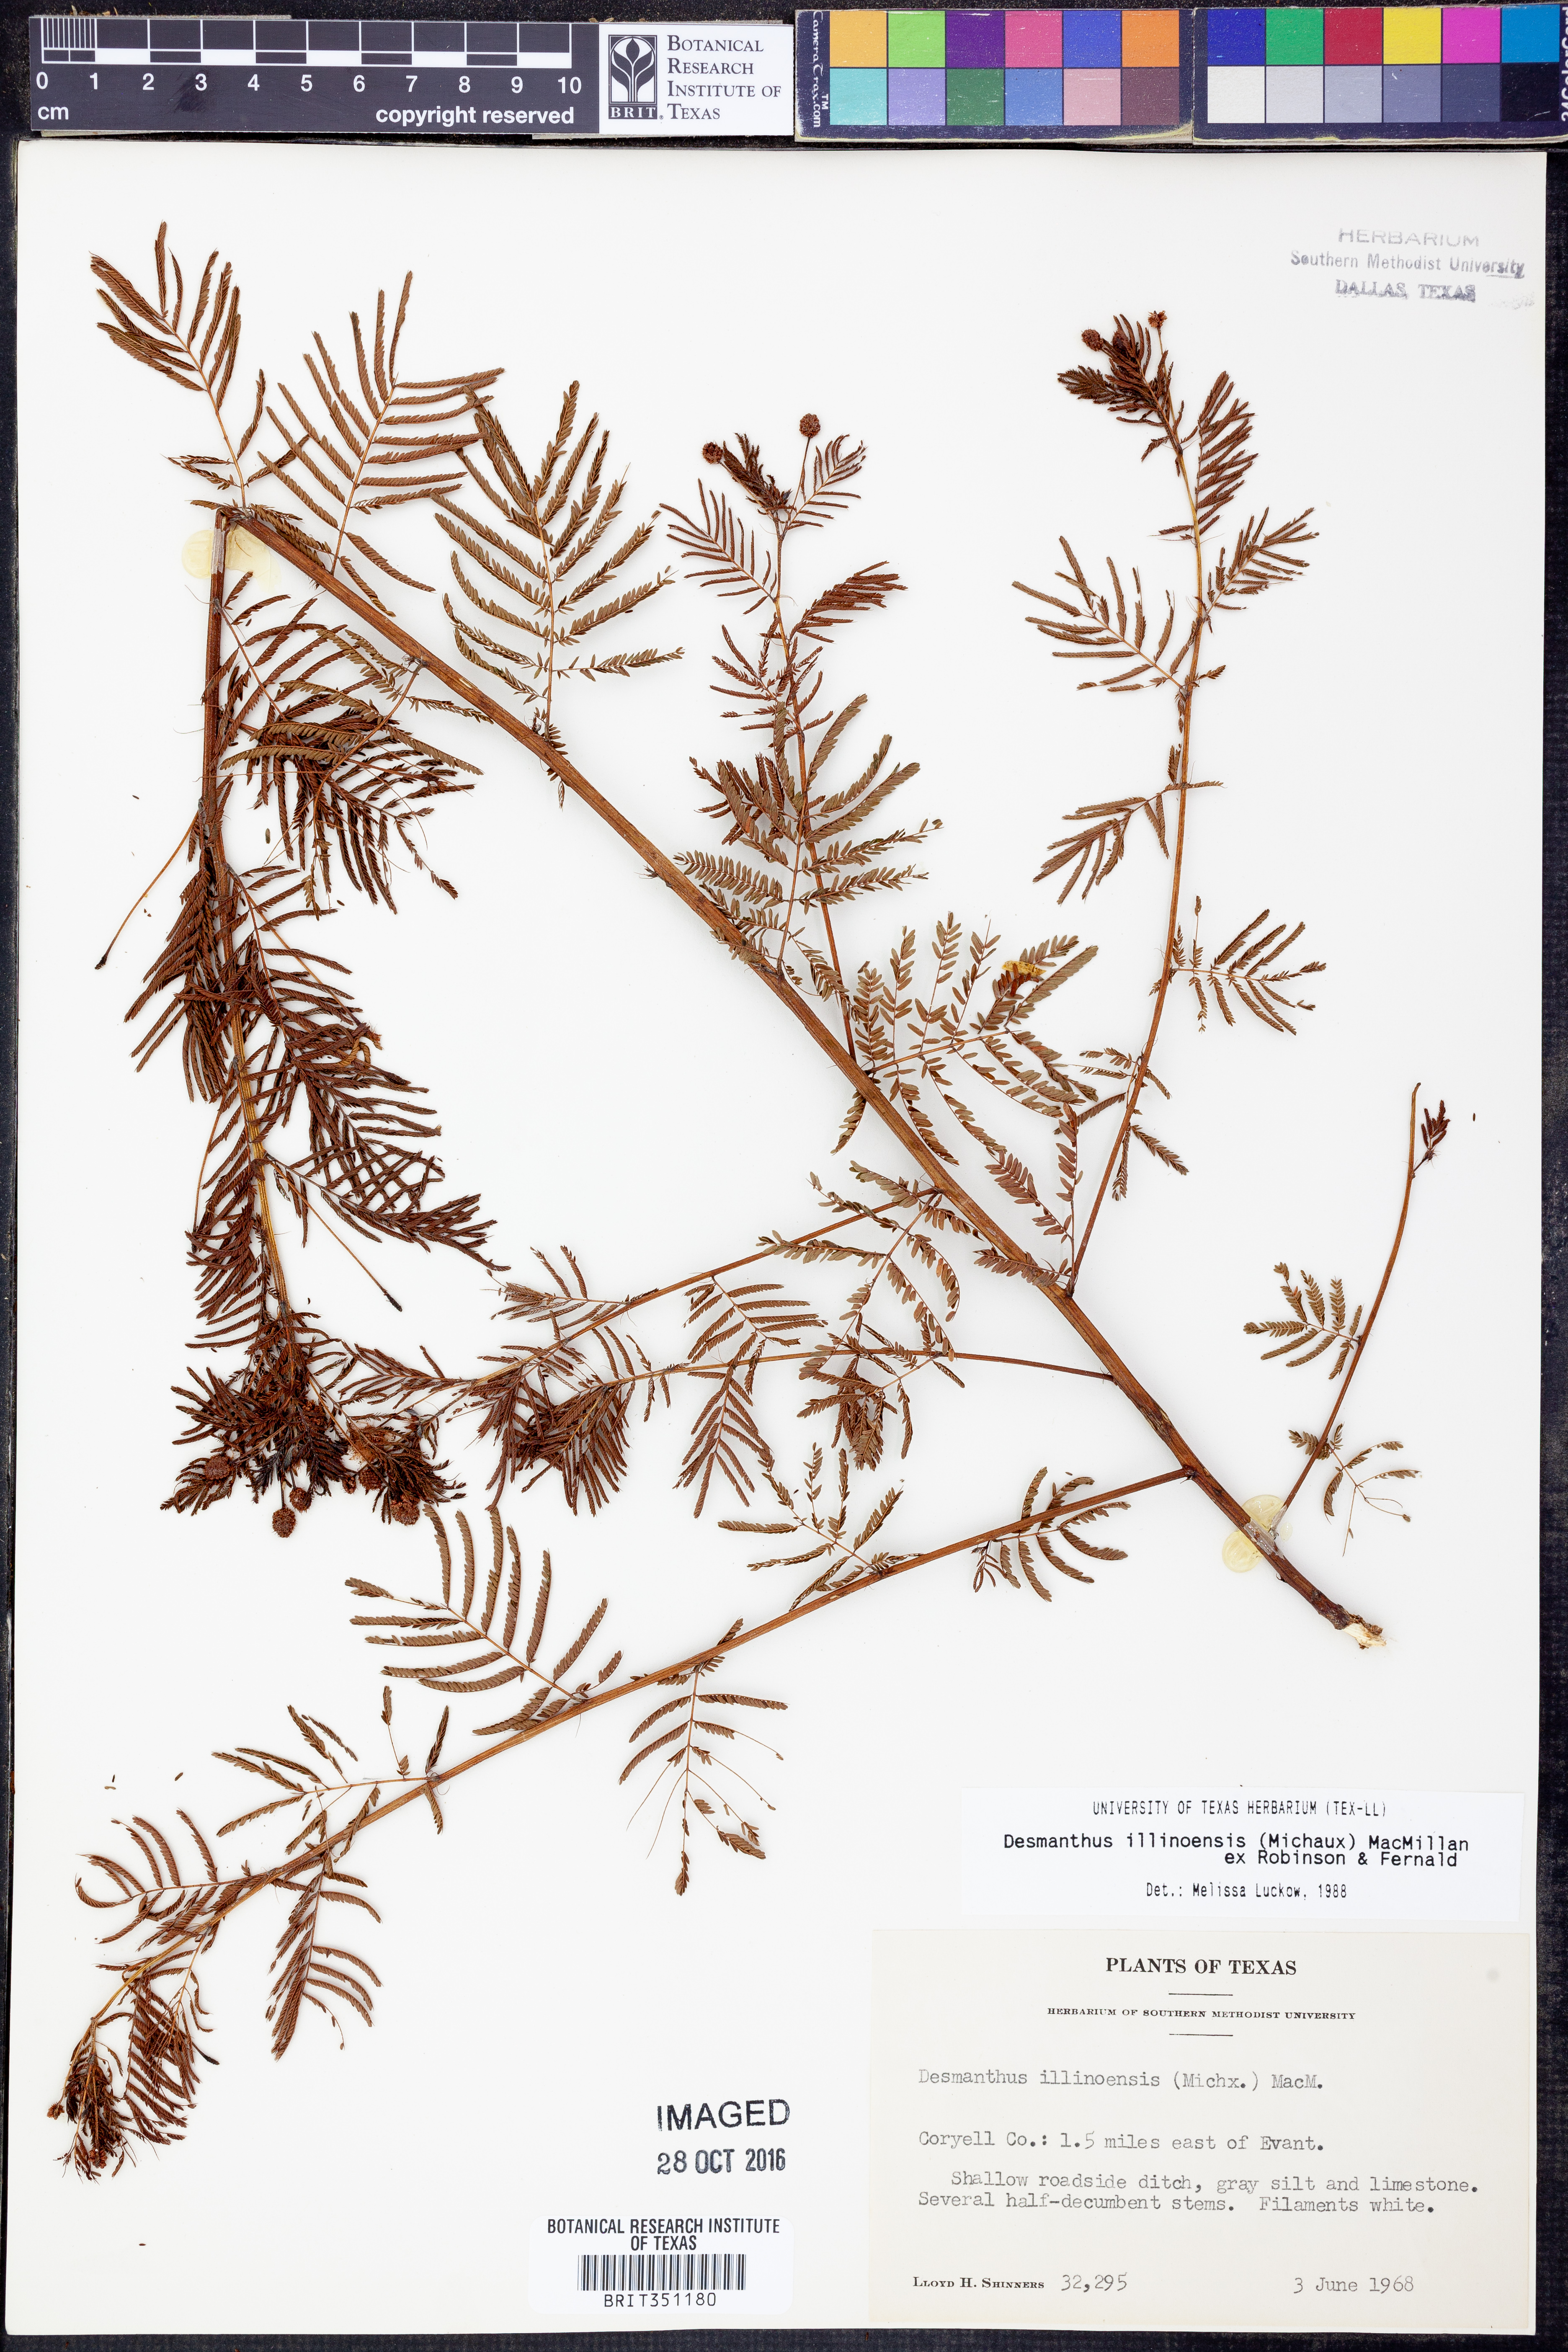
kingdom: Plantae
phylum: Tracheophyta
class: Magnoliopsida
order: Fabales
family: Fabaceae
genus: Desmanthus
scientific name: Desmanthus illinoensis
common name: Illinois bundle-flower
